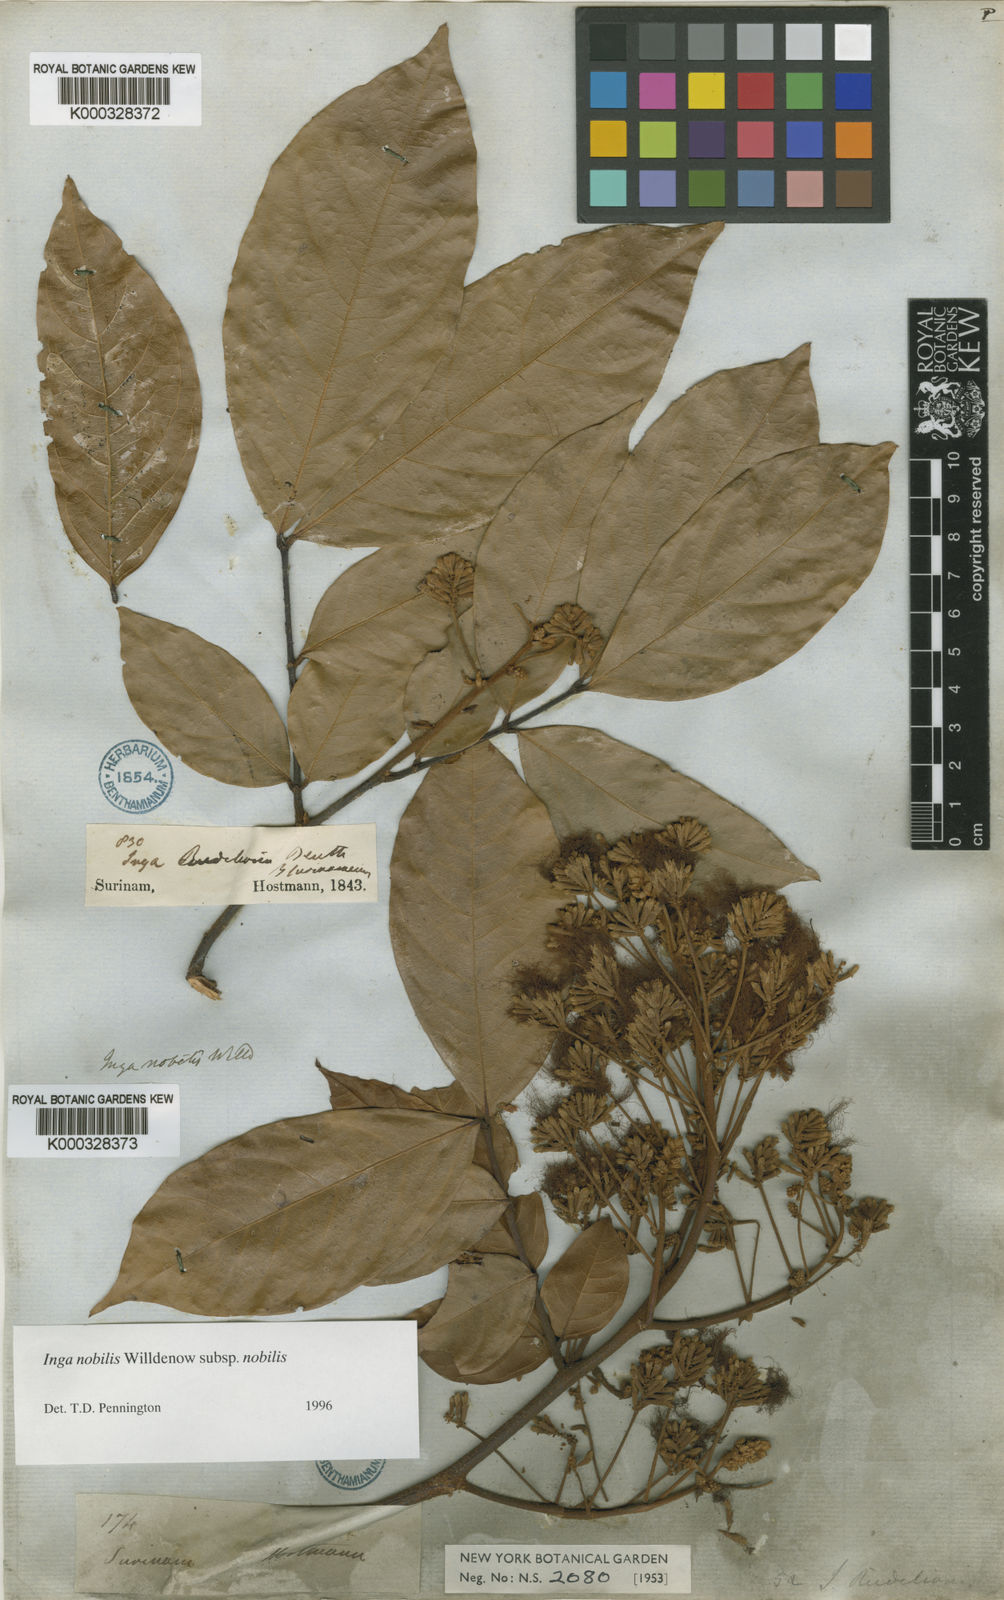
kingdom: Plantae
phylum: Tracheophyta
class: Magnoliopsida
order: Fabales
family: Fabaceae
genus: Inga
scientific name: Inga nobilis
